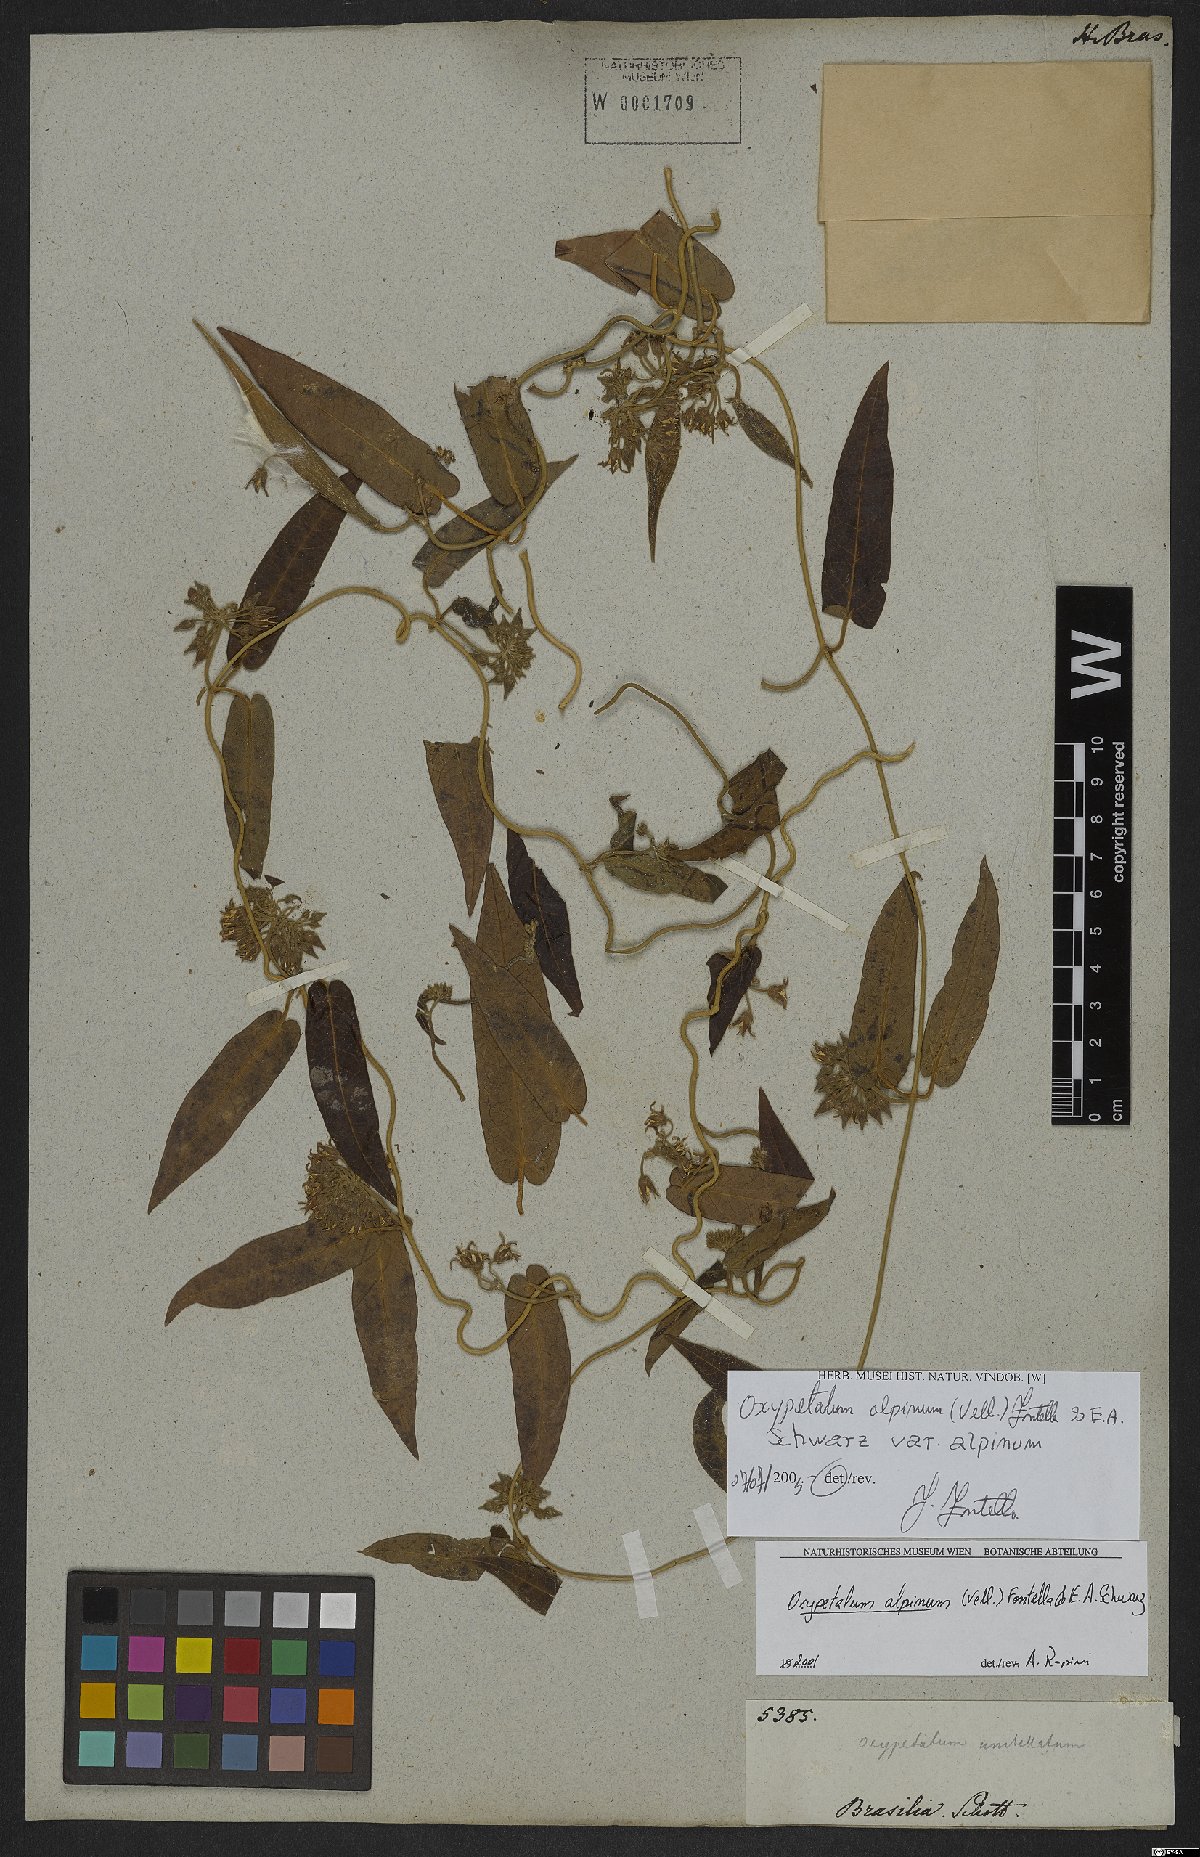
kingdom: Plantae
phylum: Tracheophyta
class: Magnoliopsida
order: Gentianales
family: Apocynaceae
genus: Oxypetalum
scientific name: Oxypetalum alpinum
